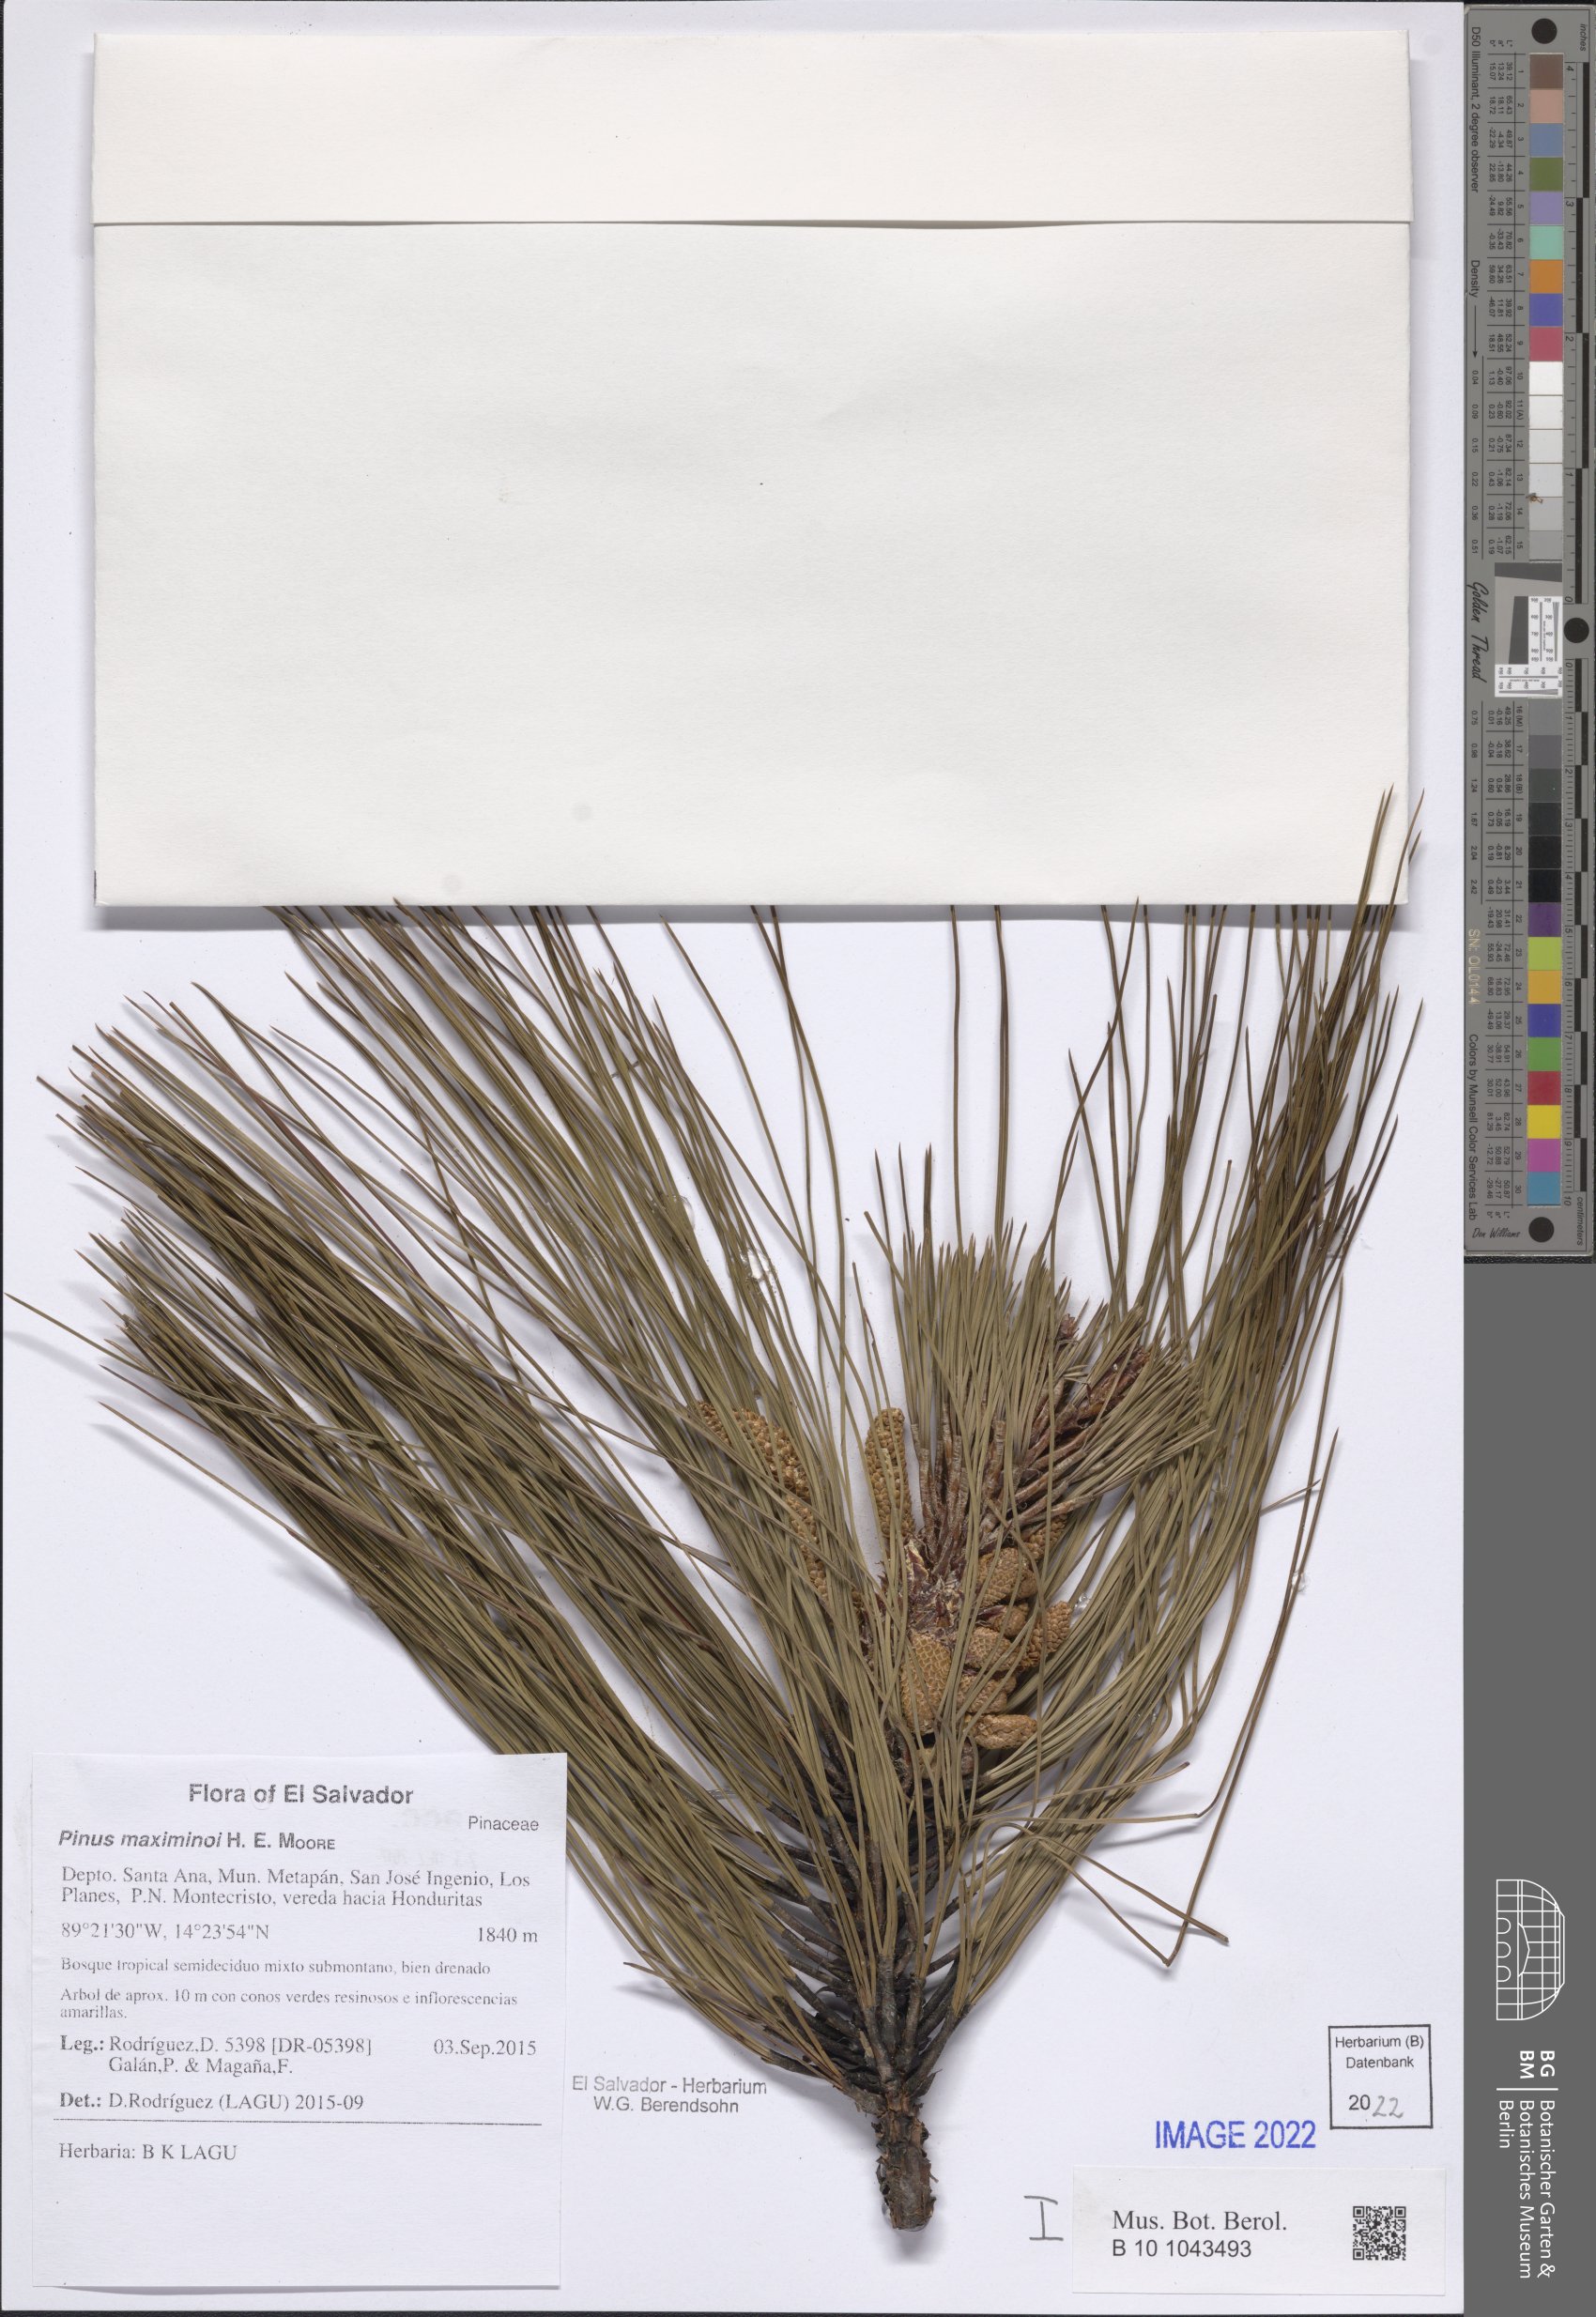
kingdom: Plantae
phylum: Tracheophyta
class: Pinopsida
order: Pinales
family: Pinaceae
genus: Pinus
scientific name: Pinus maximinoi
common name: Thin-leaf pine
